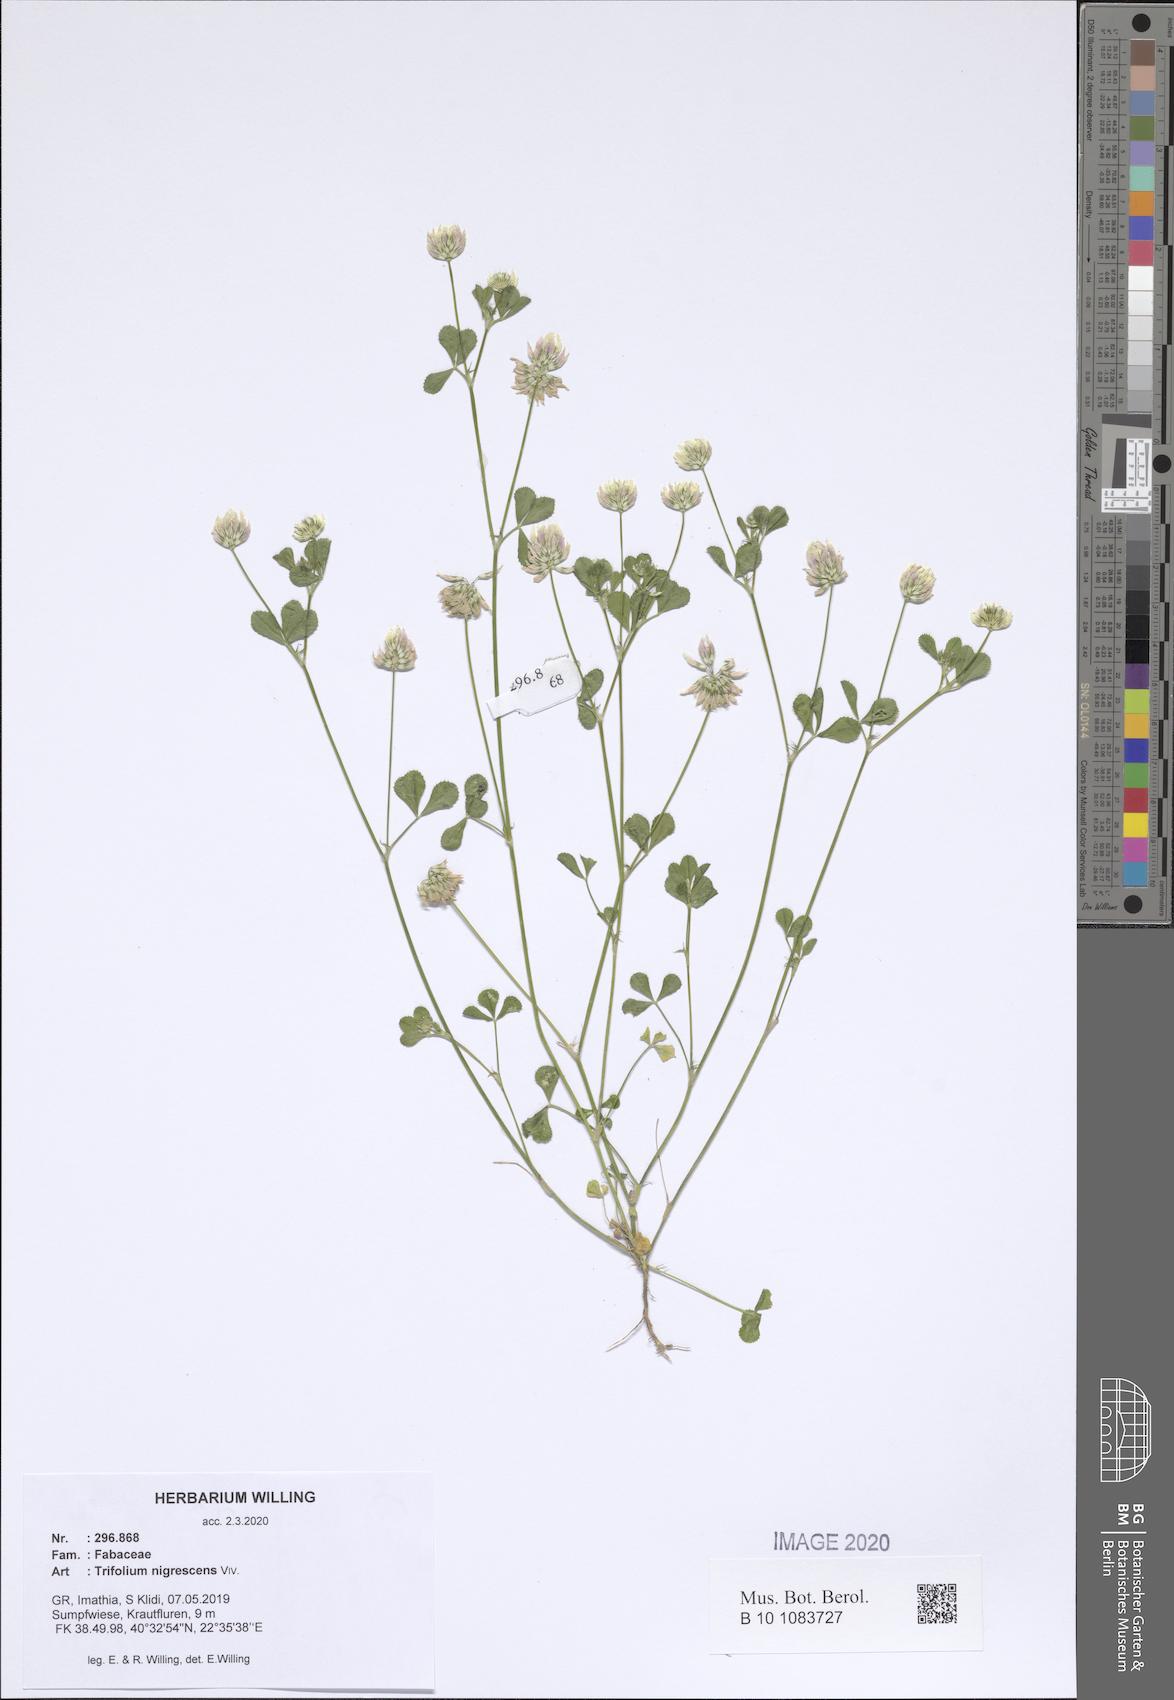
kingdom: Plantae
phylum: Tracheophyta
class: Magnoliopsida
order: Fabales
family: Fabaceae
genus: Trifolium
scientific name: Trifolium nigrescens
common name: Small white clover
